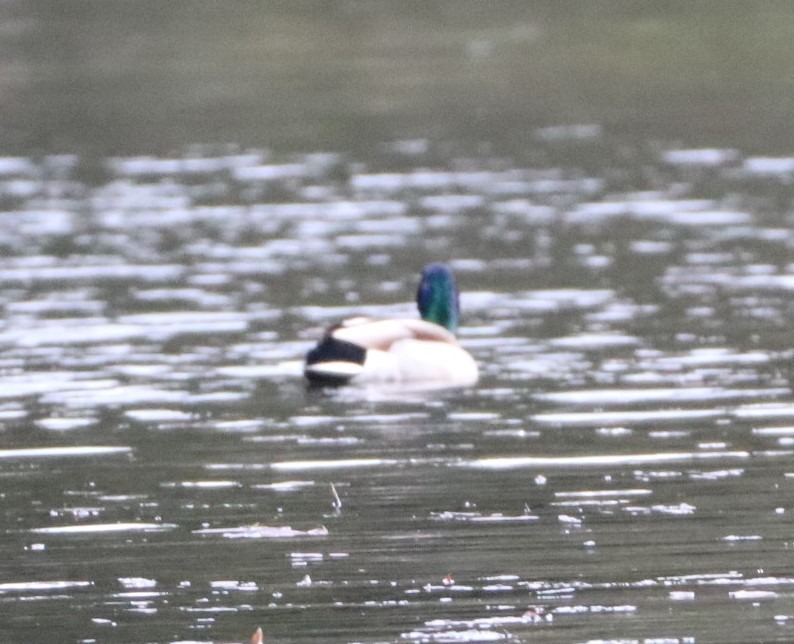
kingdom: Animalia
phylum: Chordata
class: Aves
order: Anseriformes
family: Anatidae
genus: Anas
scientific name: Anas platyrhynchos
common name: Gråand
